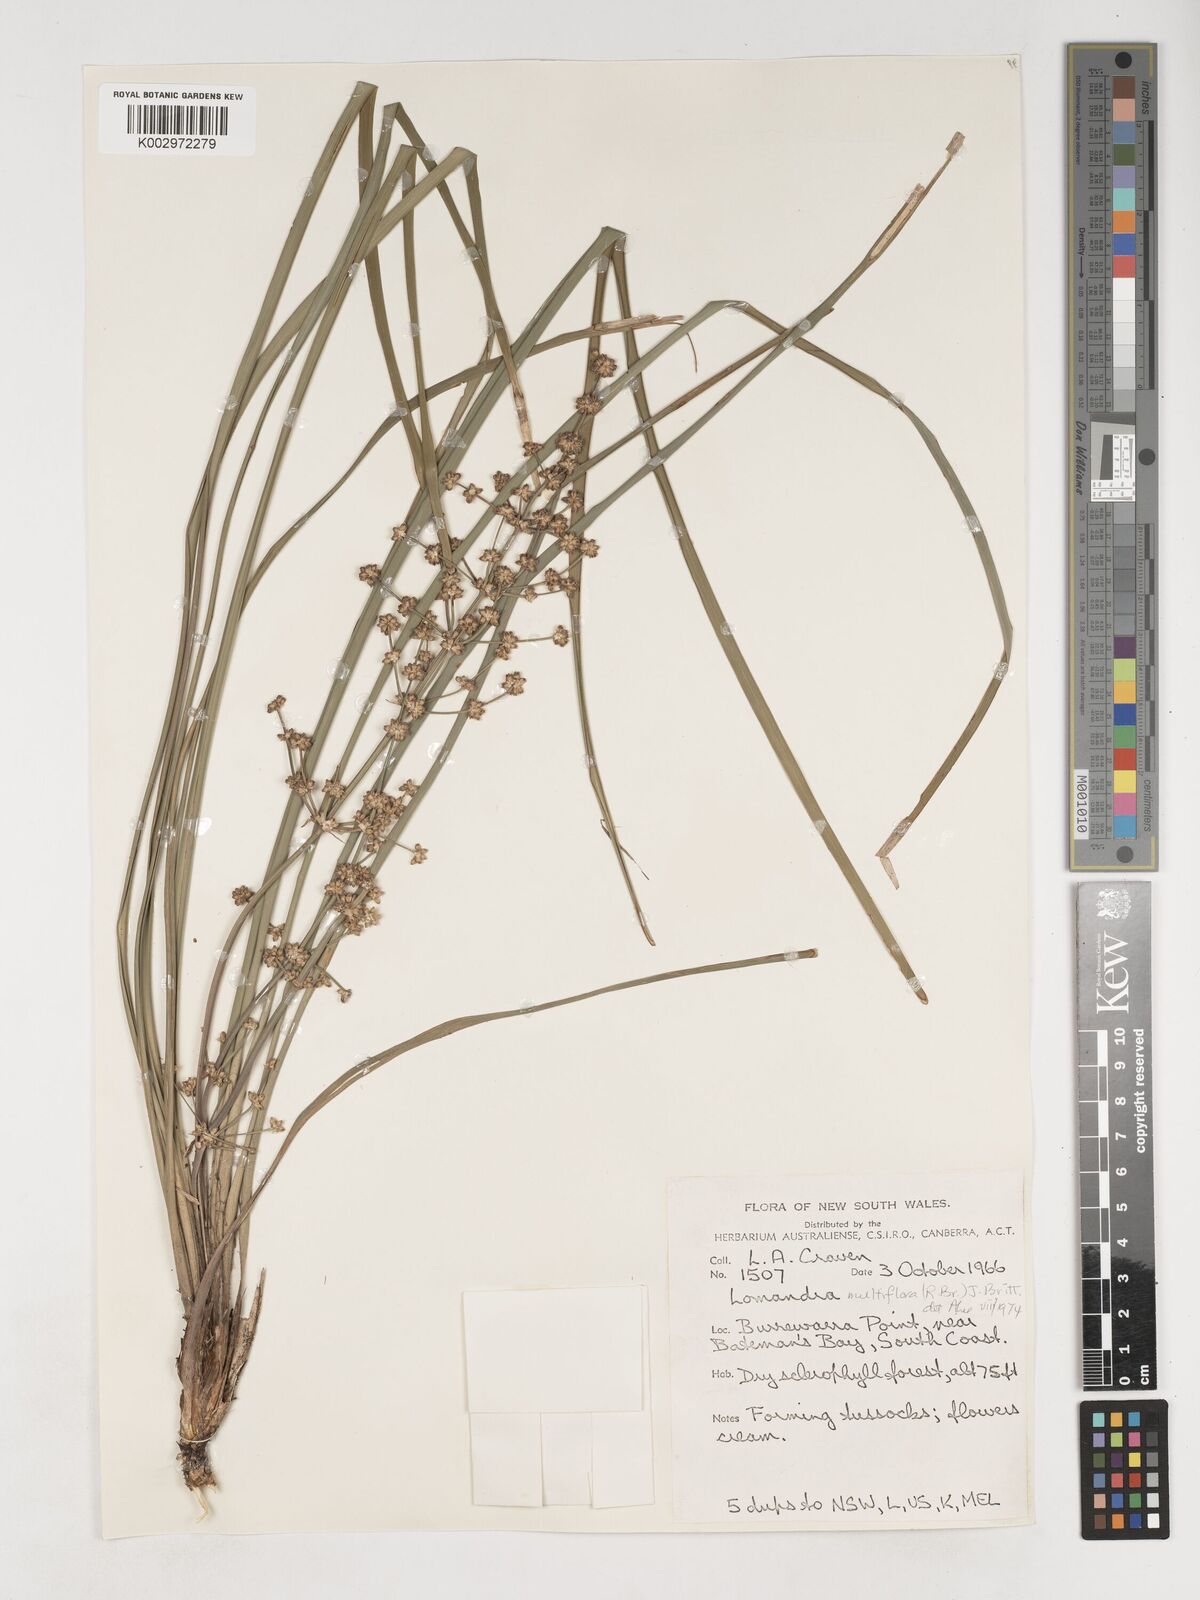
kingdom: Plantae
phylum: Tracheophyta
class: Liliopsida
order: Asparagales
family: Asparagaceae
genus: Lomandra
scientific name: Lomandra
